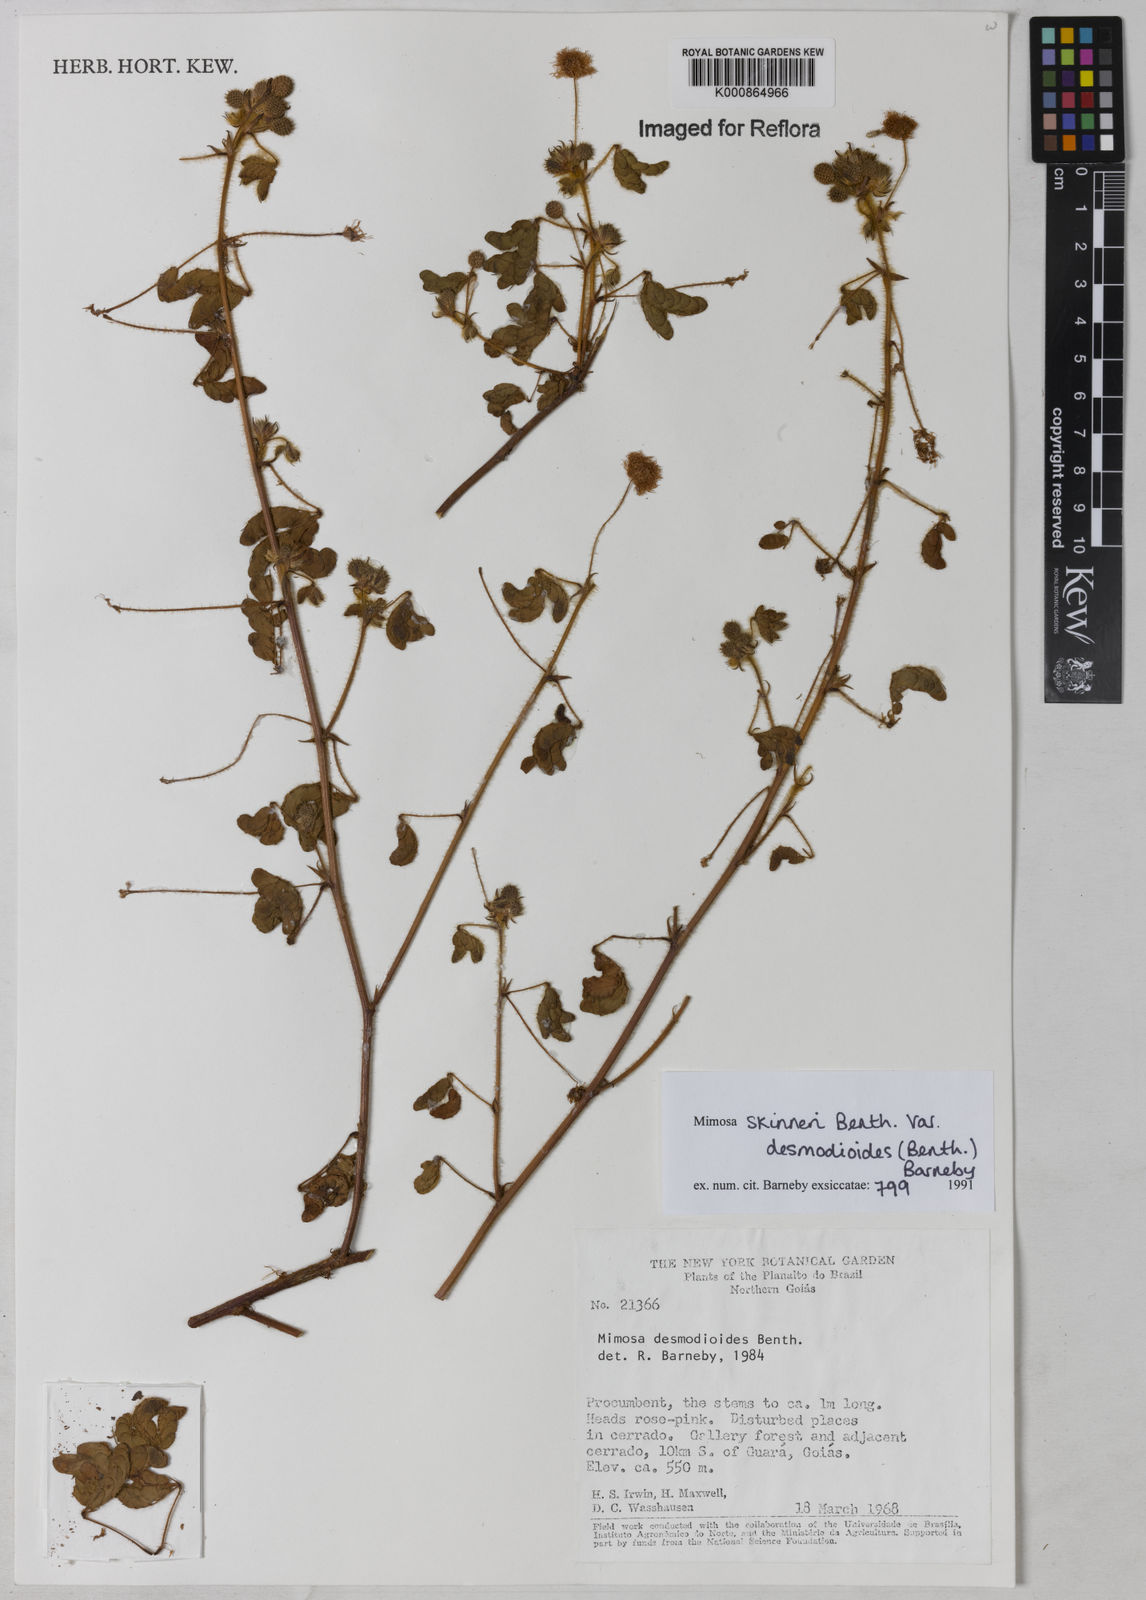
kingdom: Plantae
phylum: Tracheophyta
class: Magnoliopsida
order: Fabales
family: Fabaceae
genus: Mimosa
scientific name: Mimosa skinneri
